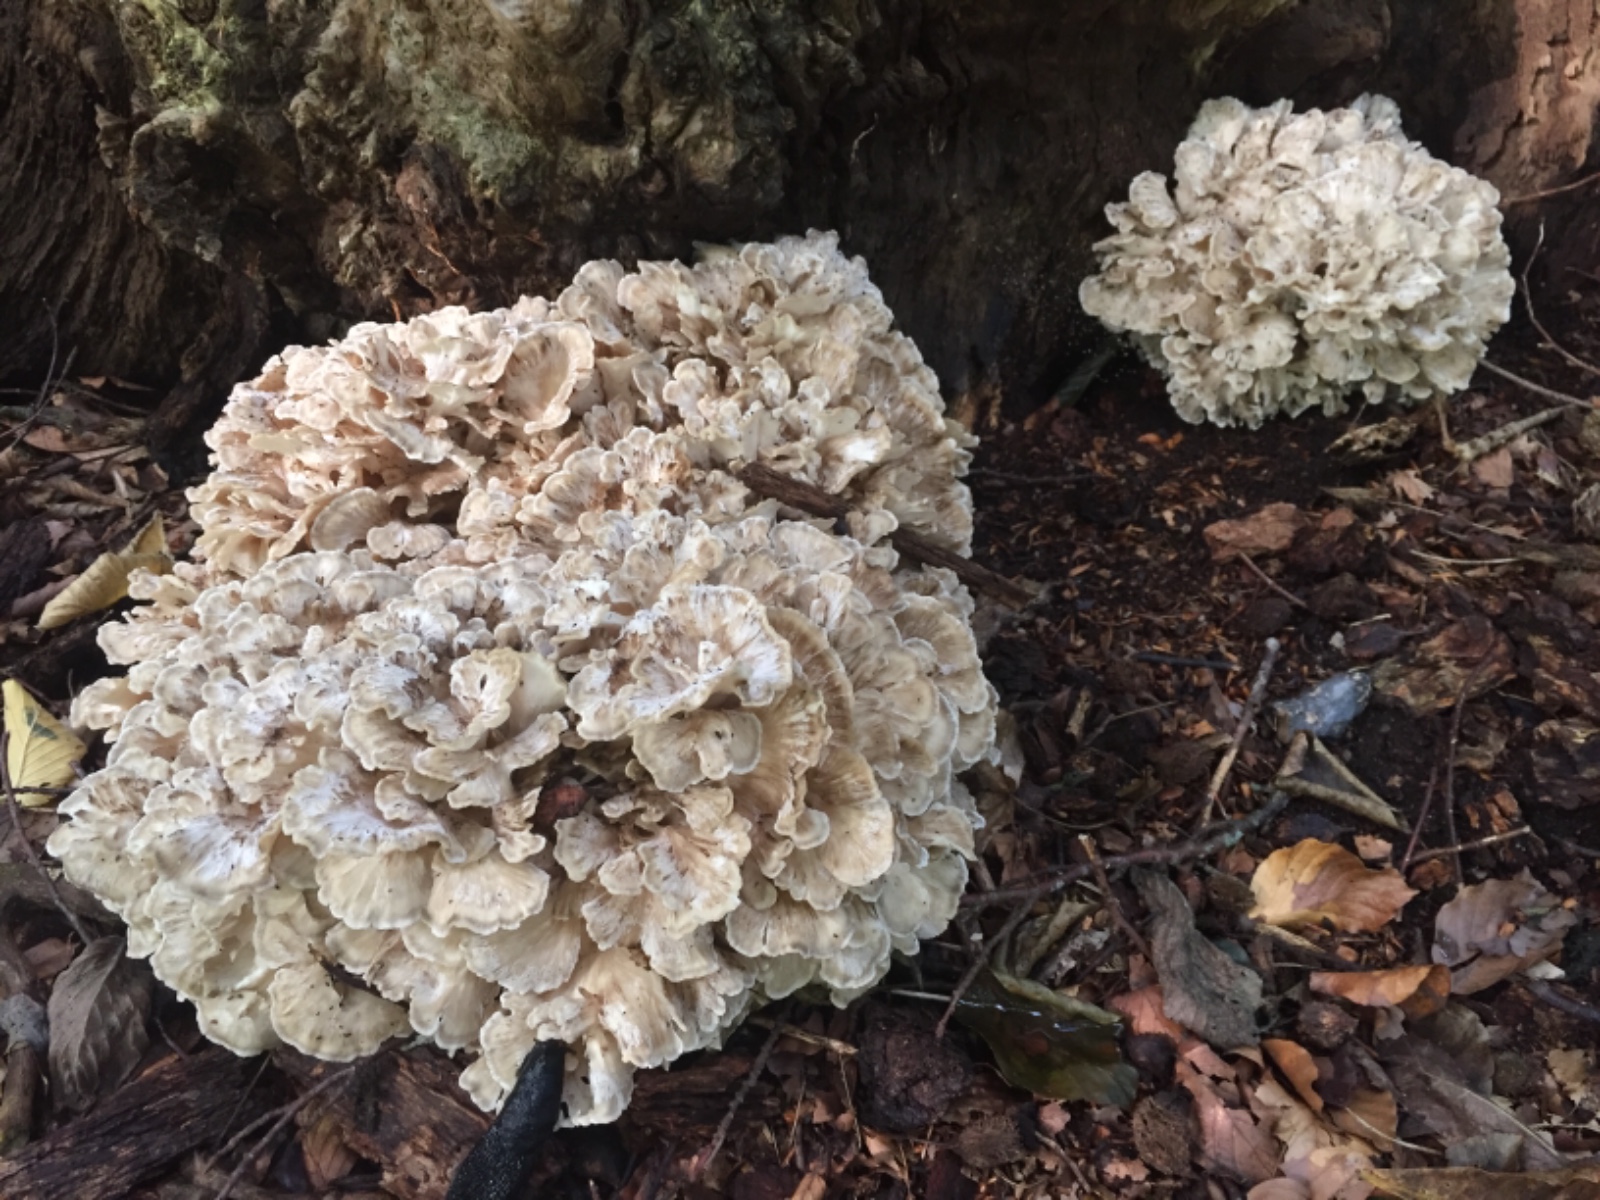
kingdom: Fungi
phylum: Basidiomycota
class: Agaricomycetes
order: Polyporales
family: Grifolaceae
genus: Grifola
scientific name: Grifola frondosa
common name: tueporesvamp
